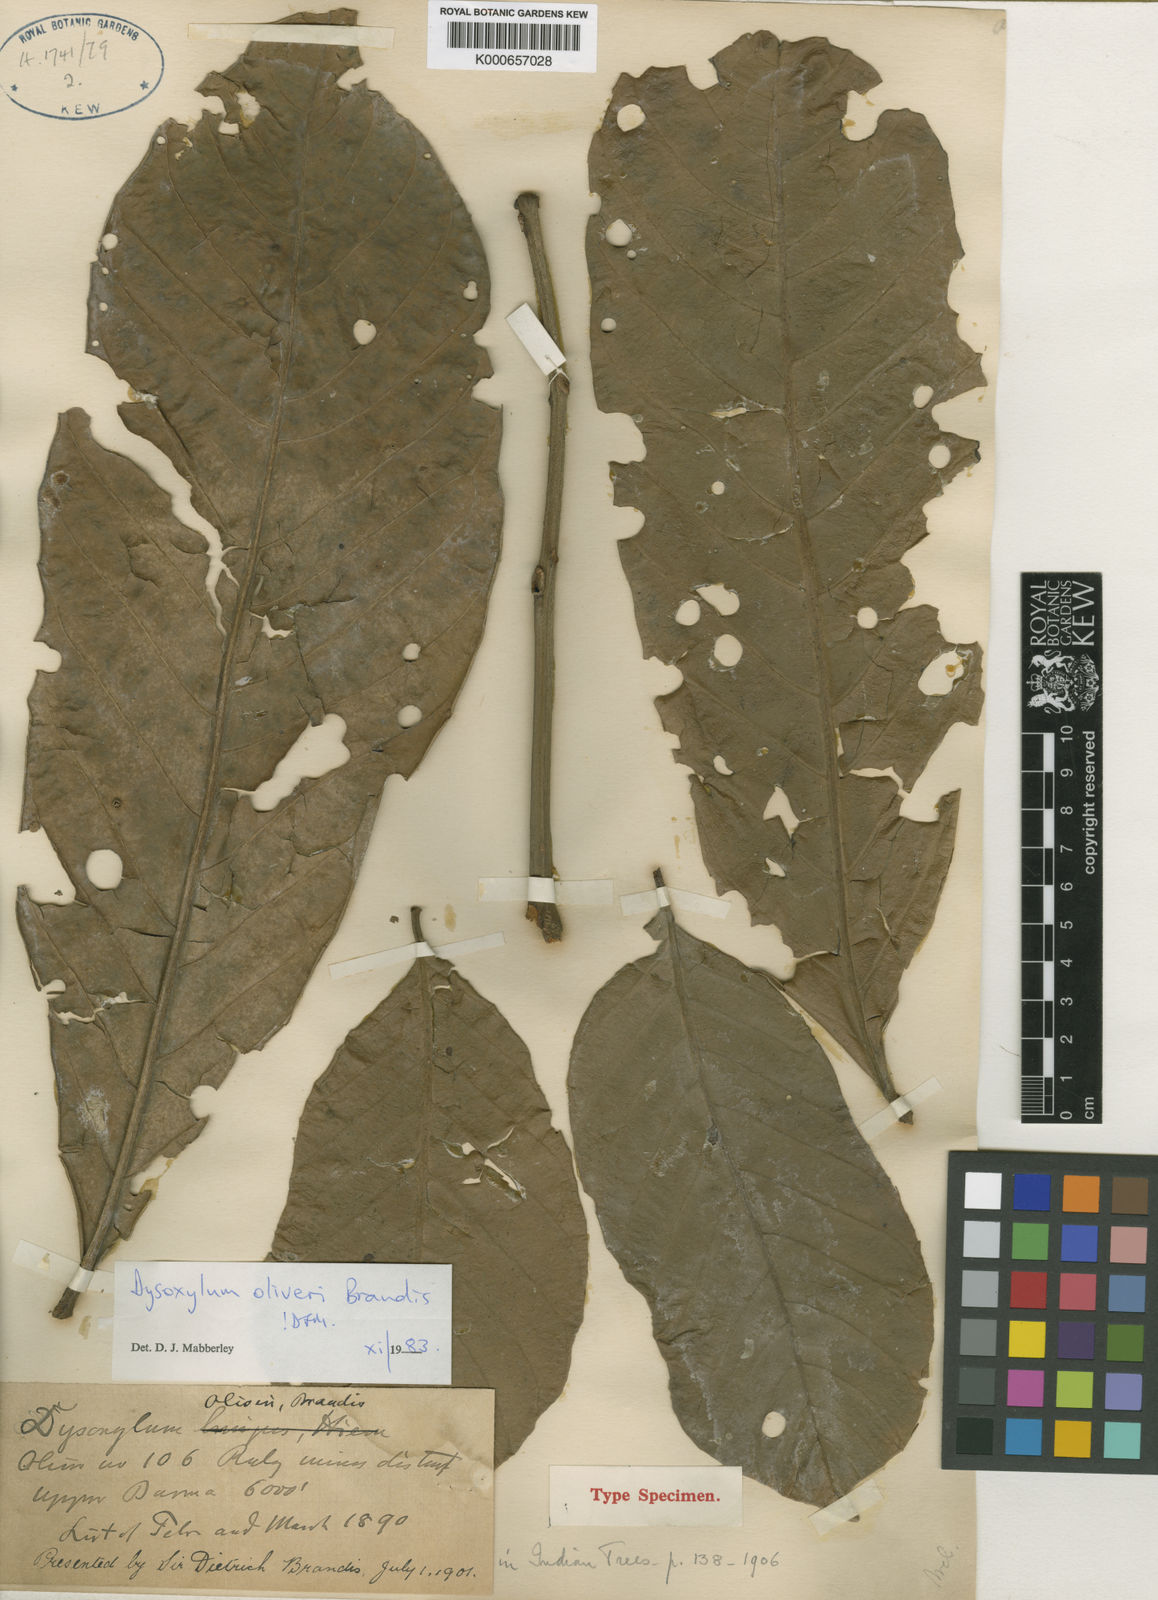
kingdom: Plantae
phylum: Tracheophyta
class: Magnoliopsida
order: Sapindales
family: Meliaceae
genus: Dysoxylum
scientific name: Dysoxylum oliveri
